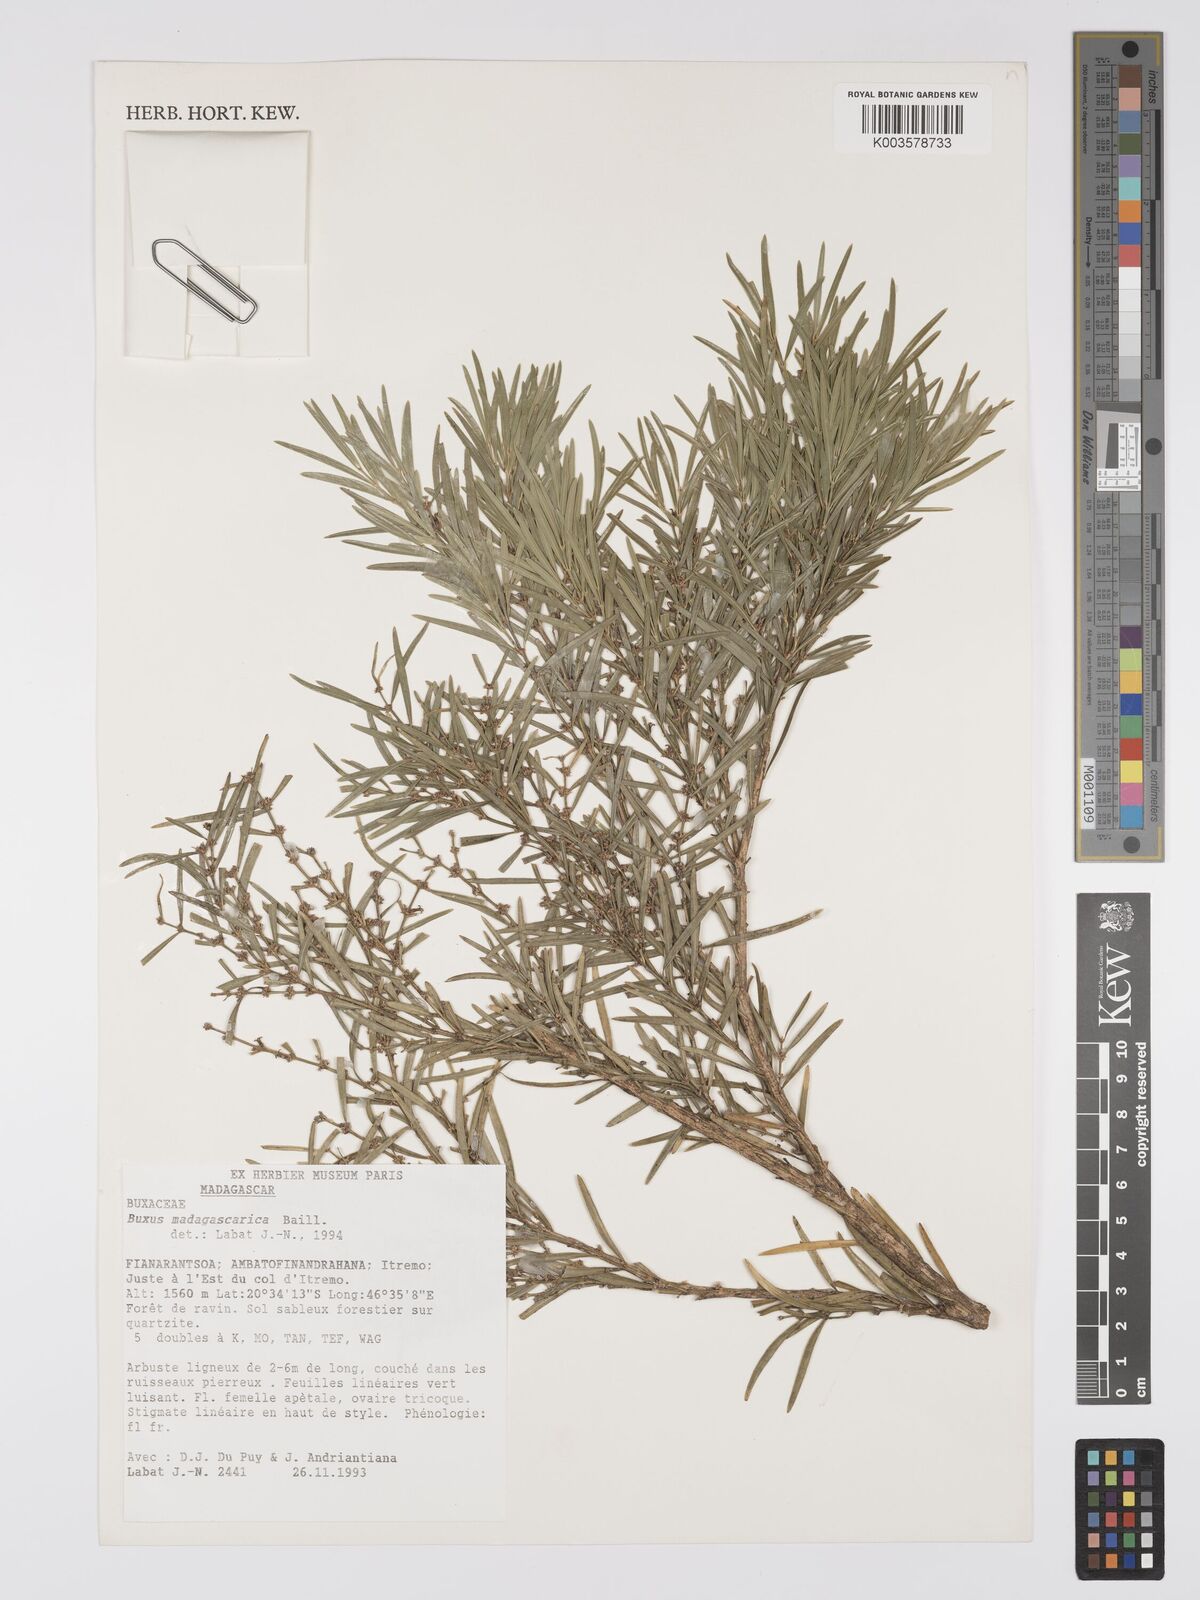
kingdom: Plantae
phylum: Tracheophyta
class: Magnoliopsida
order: Buxales
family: Buxaceae
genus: Buxus
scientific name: Buxus madagascarica
